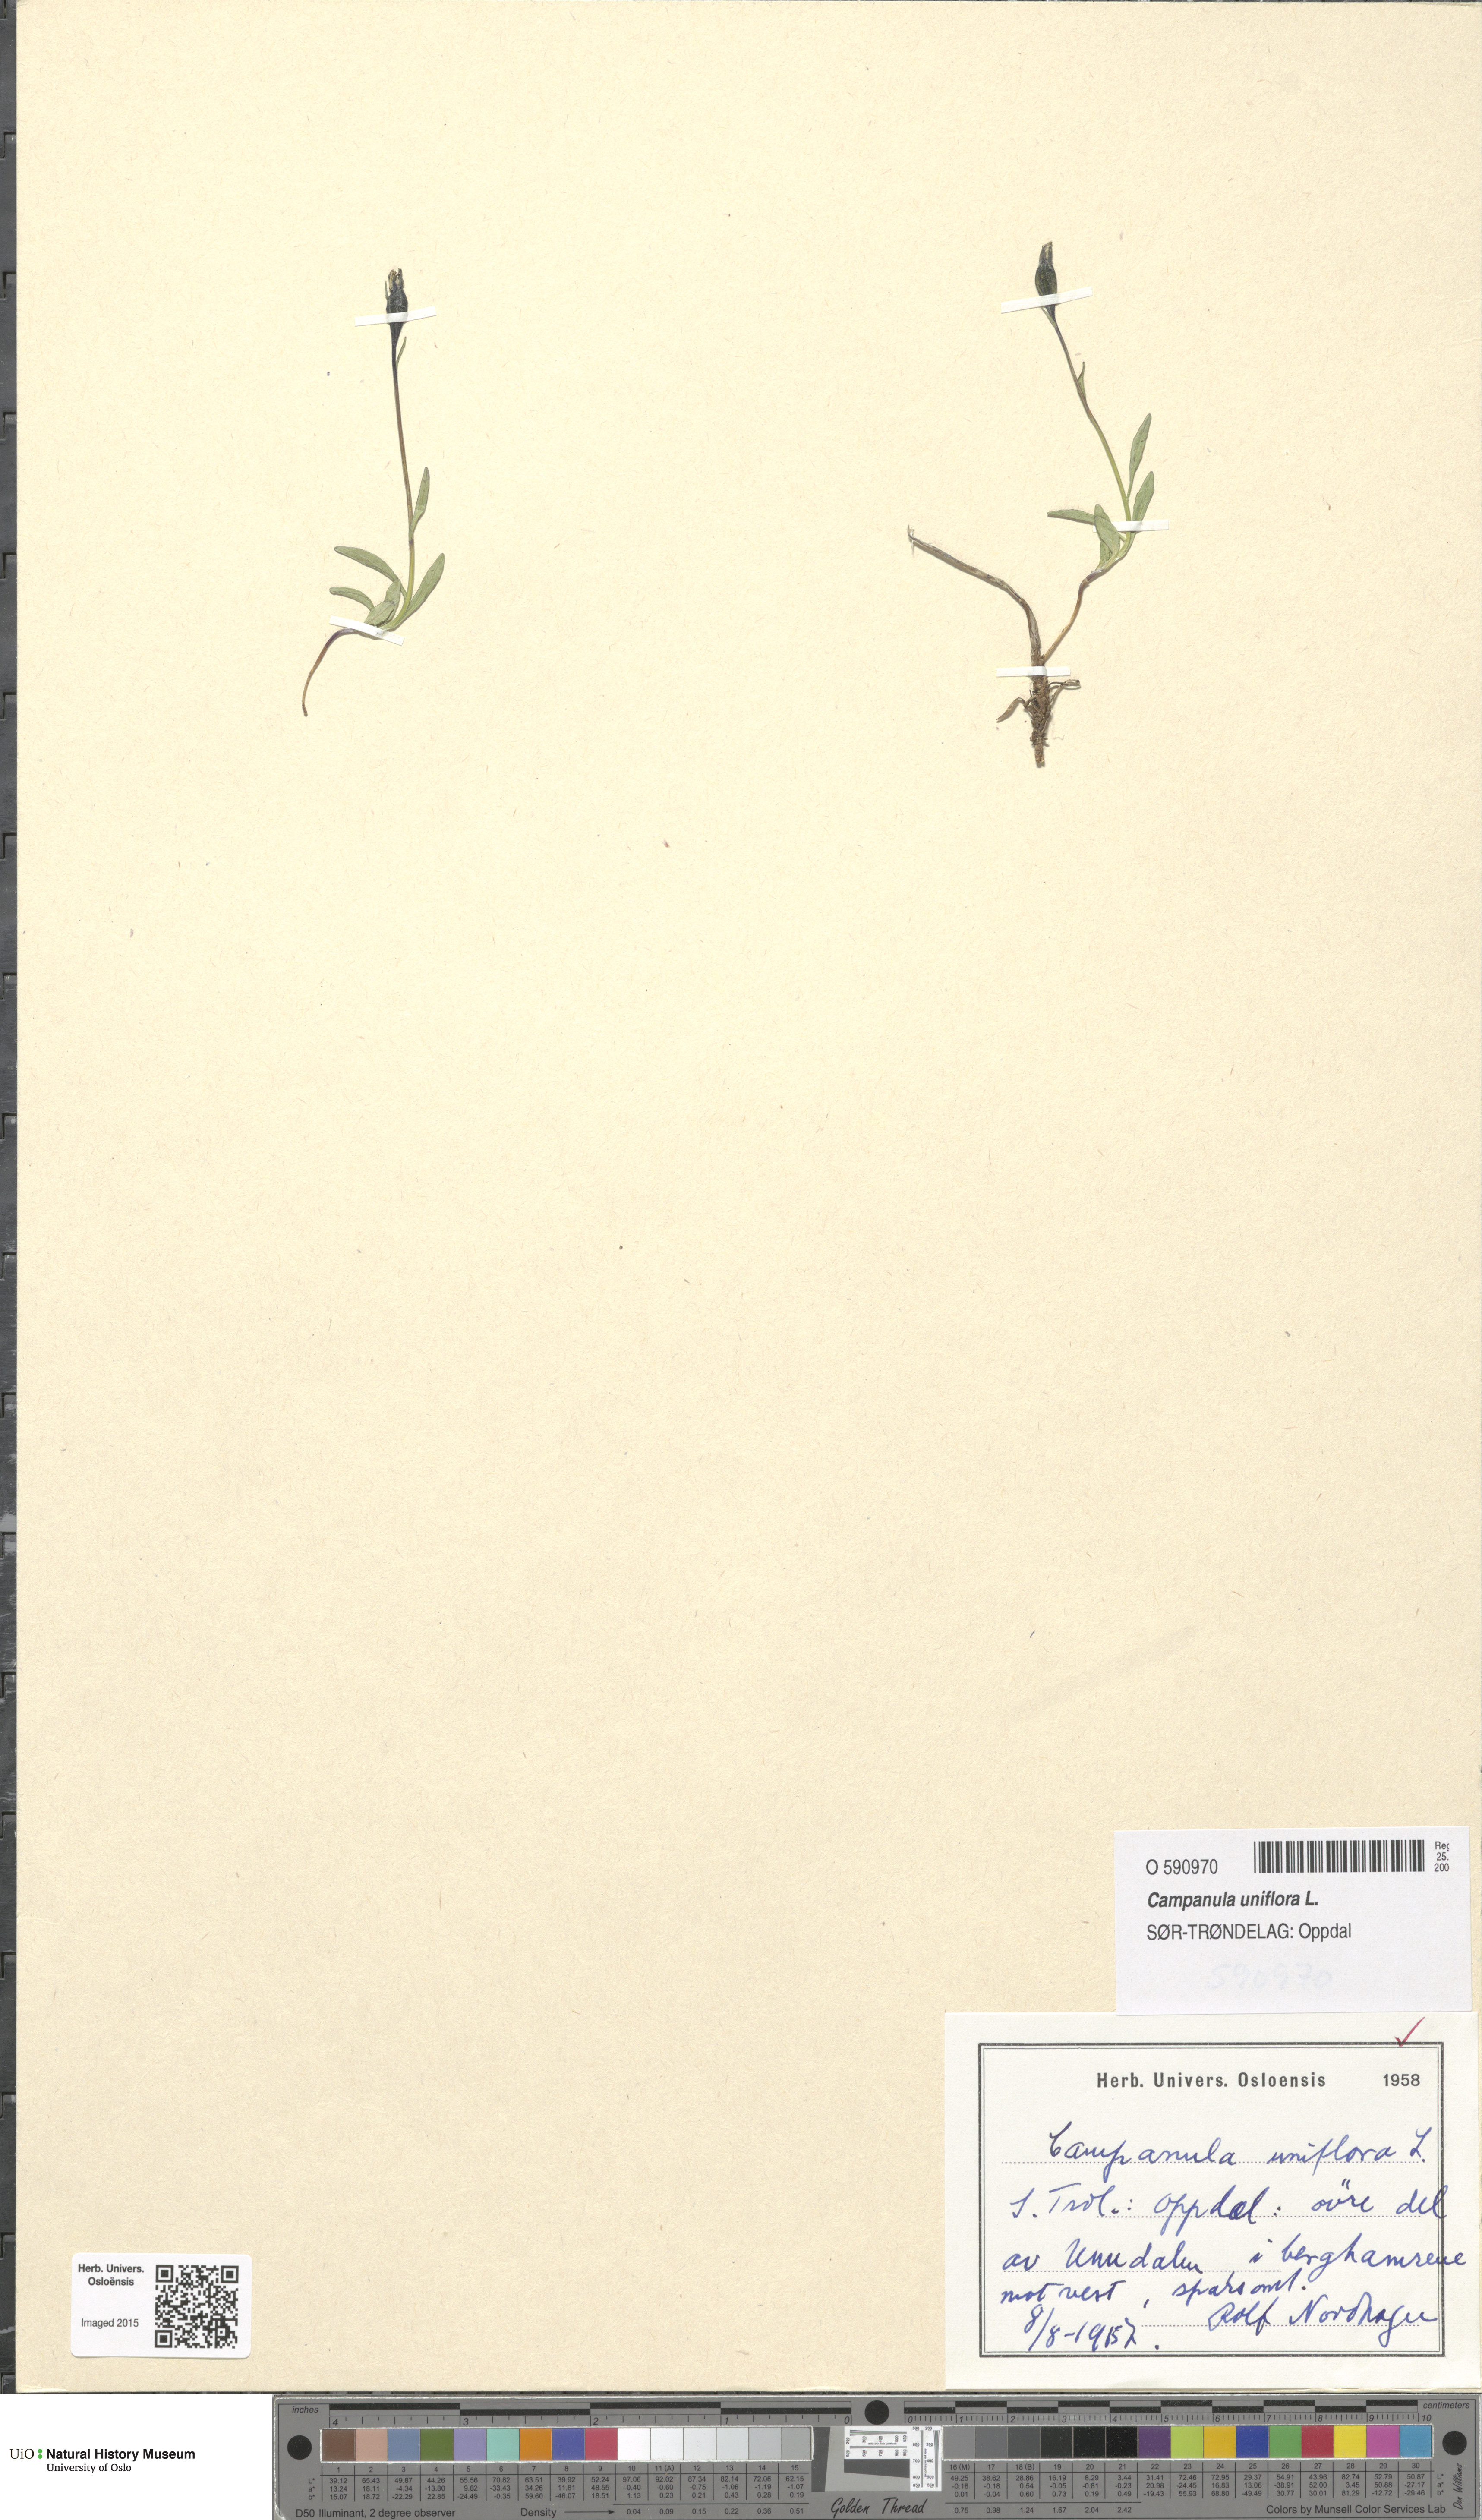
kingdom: Plantae
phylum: Tracheophyta
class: Magnoliopsida
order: Asterales
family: Campanulaceae
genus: Melanocalyx
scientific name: Melanocalyx uniflora
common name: Alpine harebell
